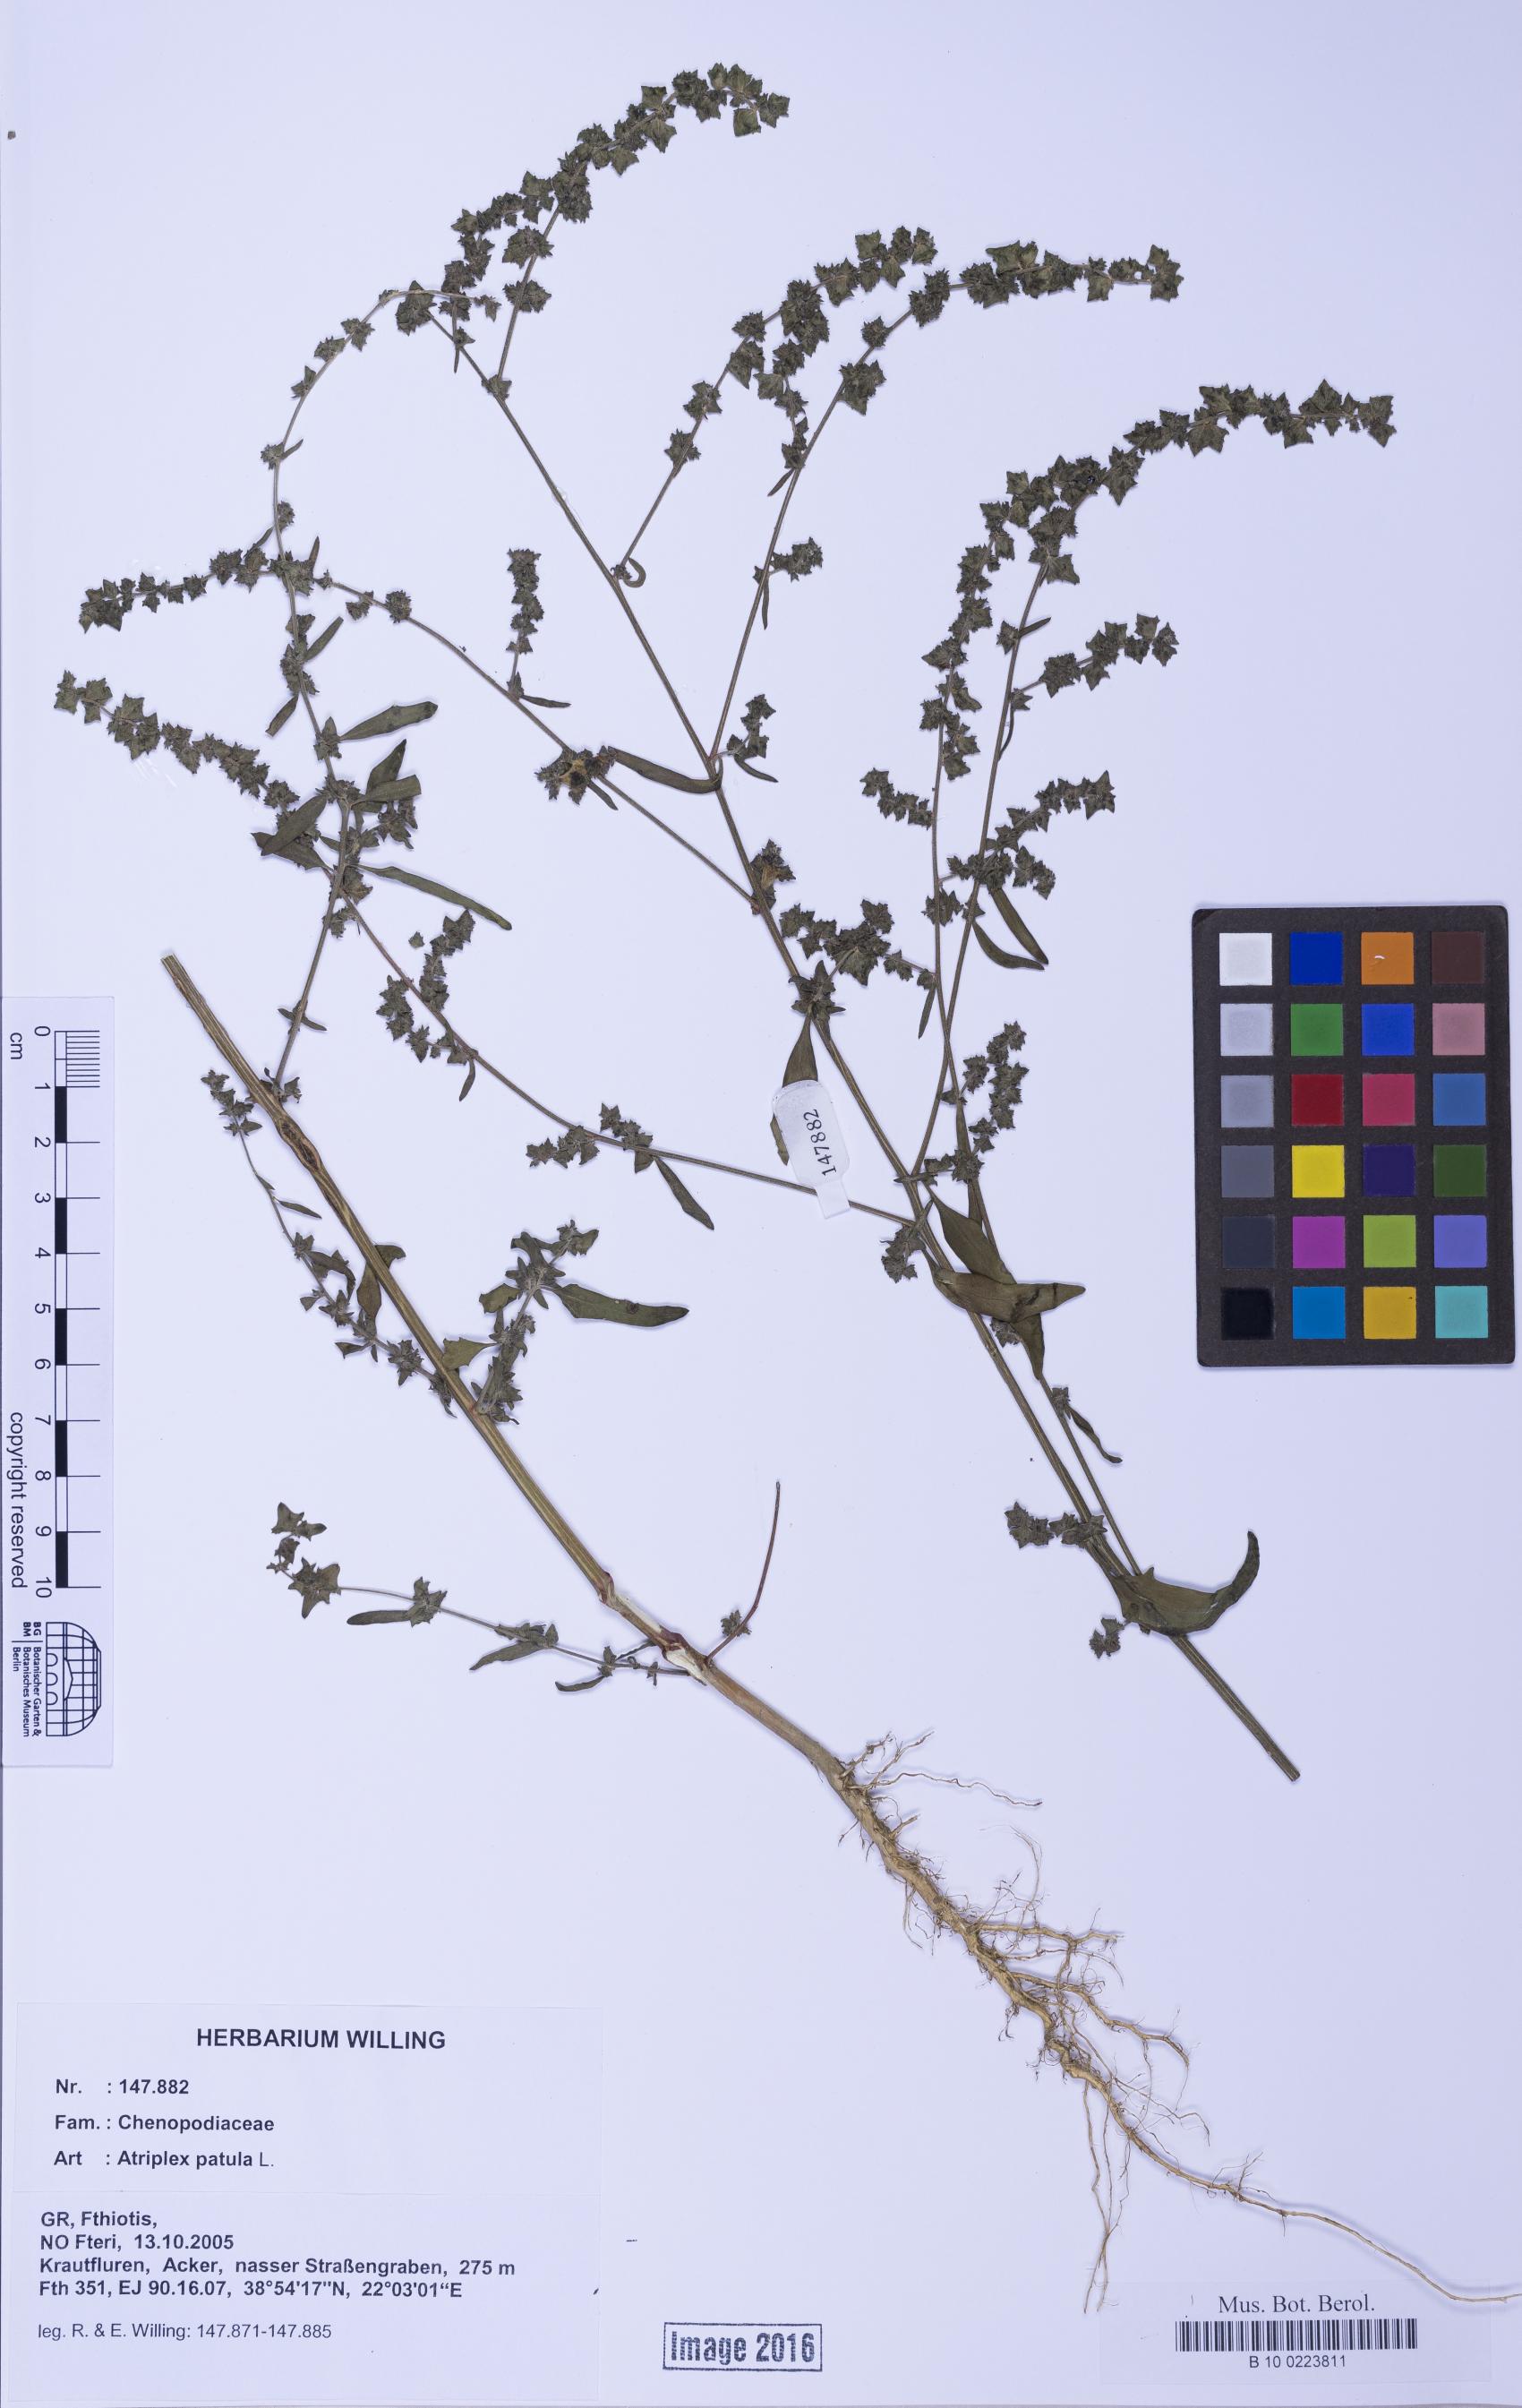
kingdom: Plantae
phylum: Tracheophyta
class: Magnoliopsida
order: Caryophyllales
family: Amaranthaceae
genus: Atriplex
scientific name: Atriplex patula
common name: Common orache
